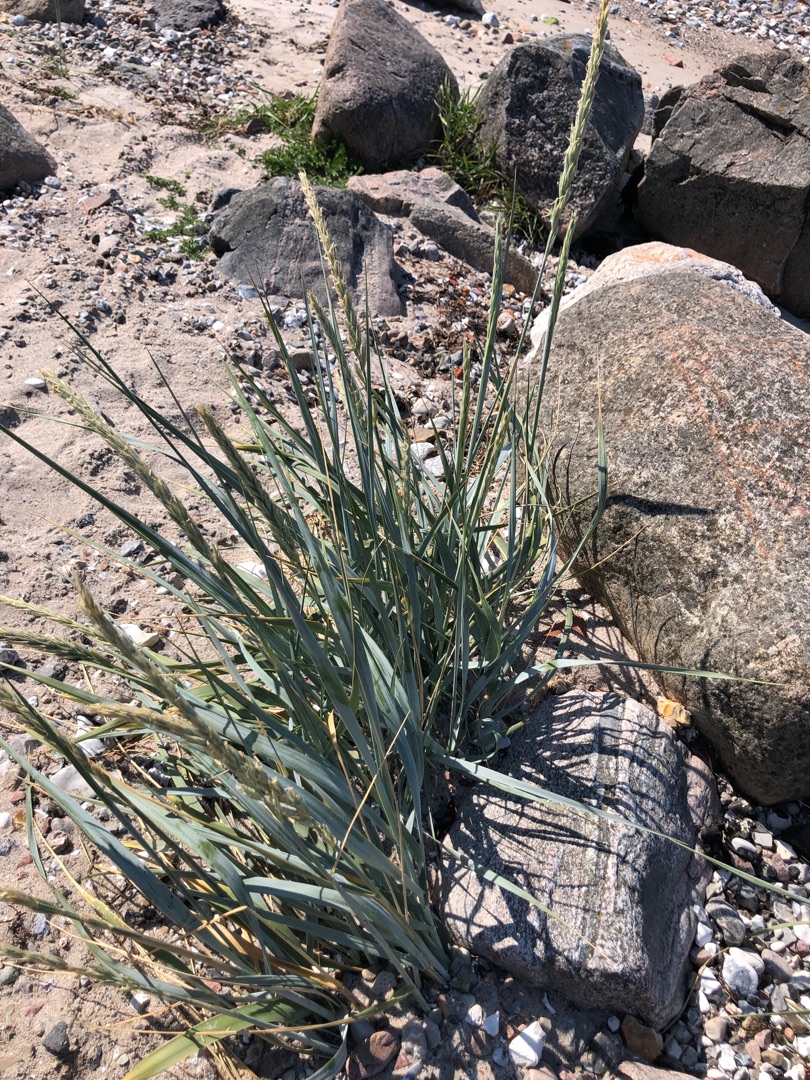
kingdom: Plantae
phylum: Tracheophyta
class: Liliopsida
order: Poales
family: Poaceae
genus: Leymus
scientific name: Leymus arenarius
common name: Marehalm
